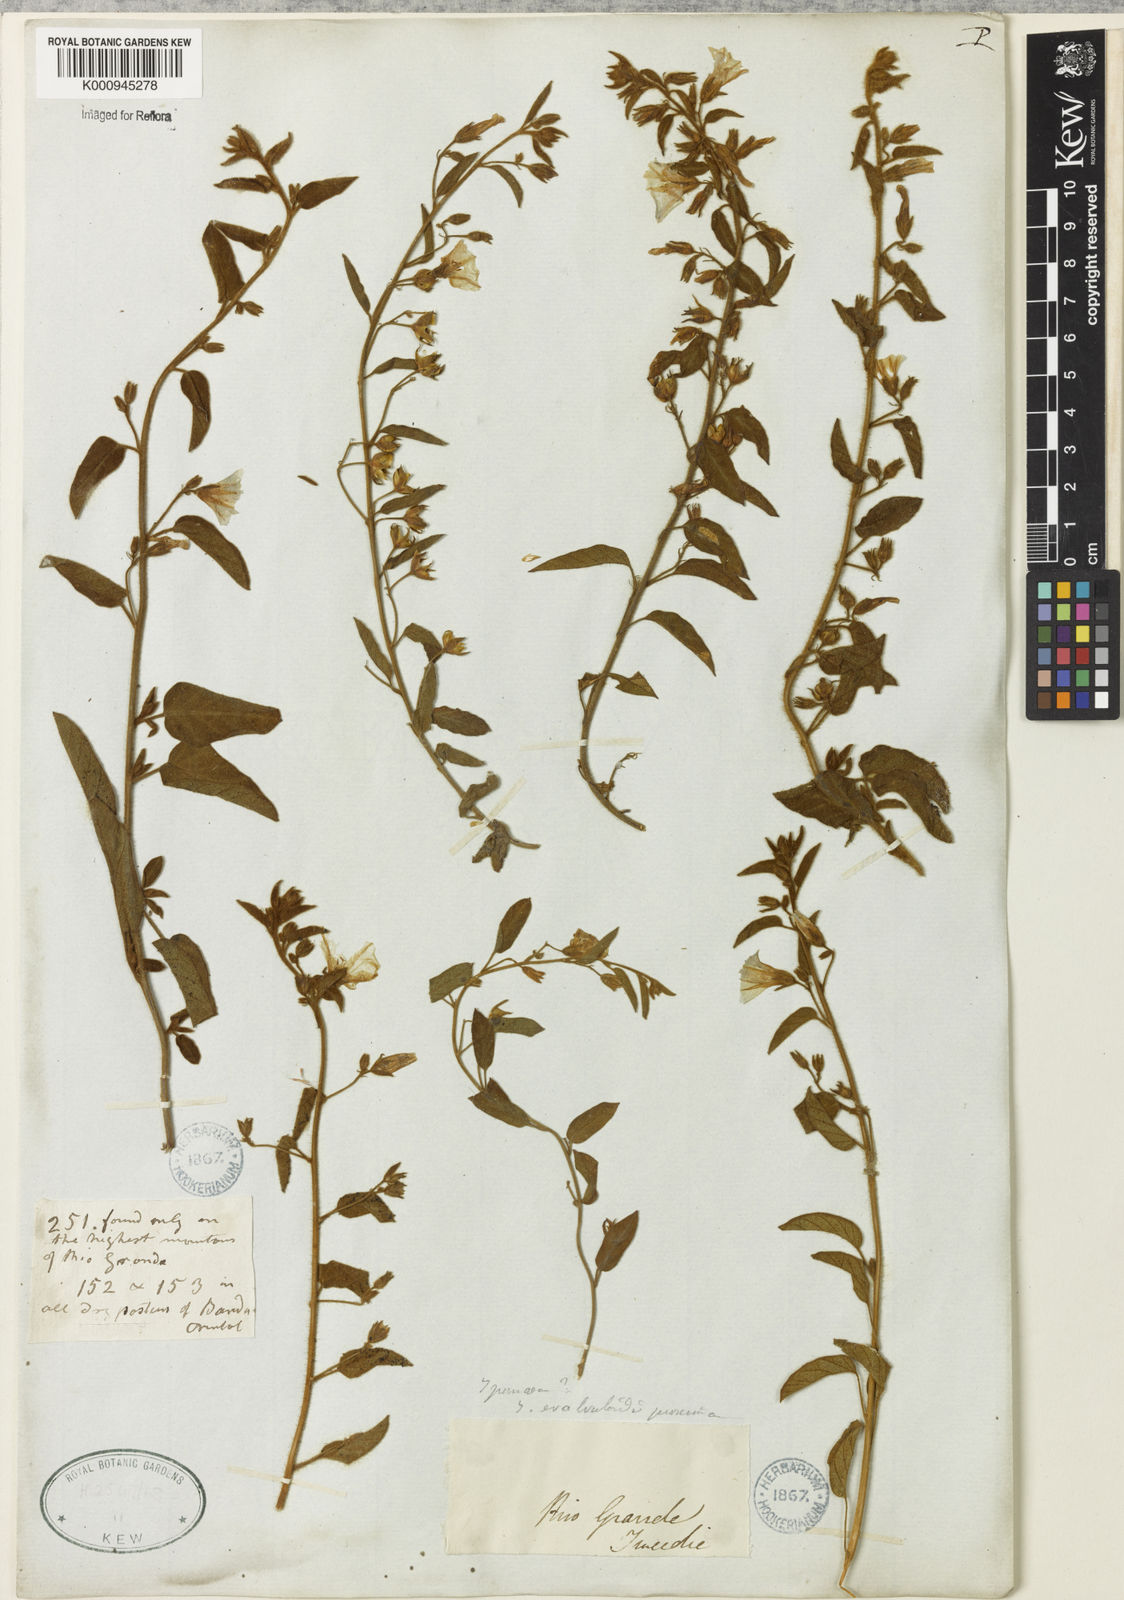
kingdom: Plantae
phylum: Tracheophyta
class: Magnoliopsida
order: Solanales
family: Convolvulaceae
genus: Jacquemontia
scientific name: Jacquemontia evolvuloides
